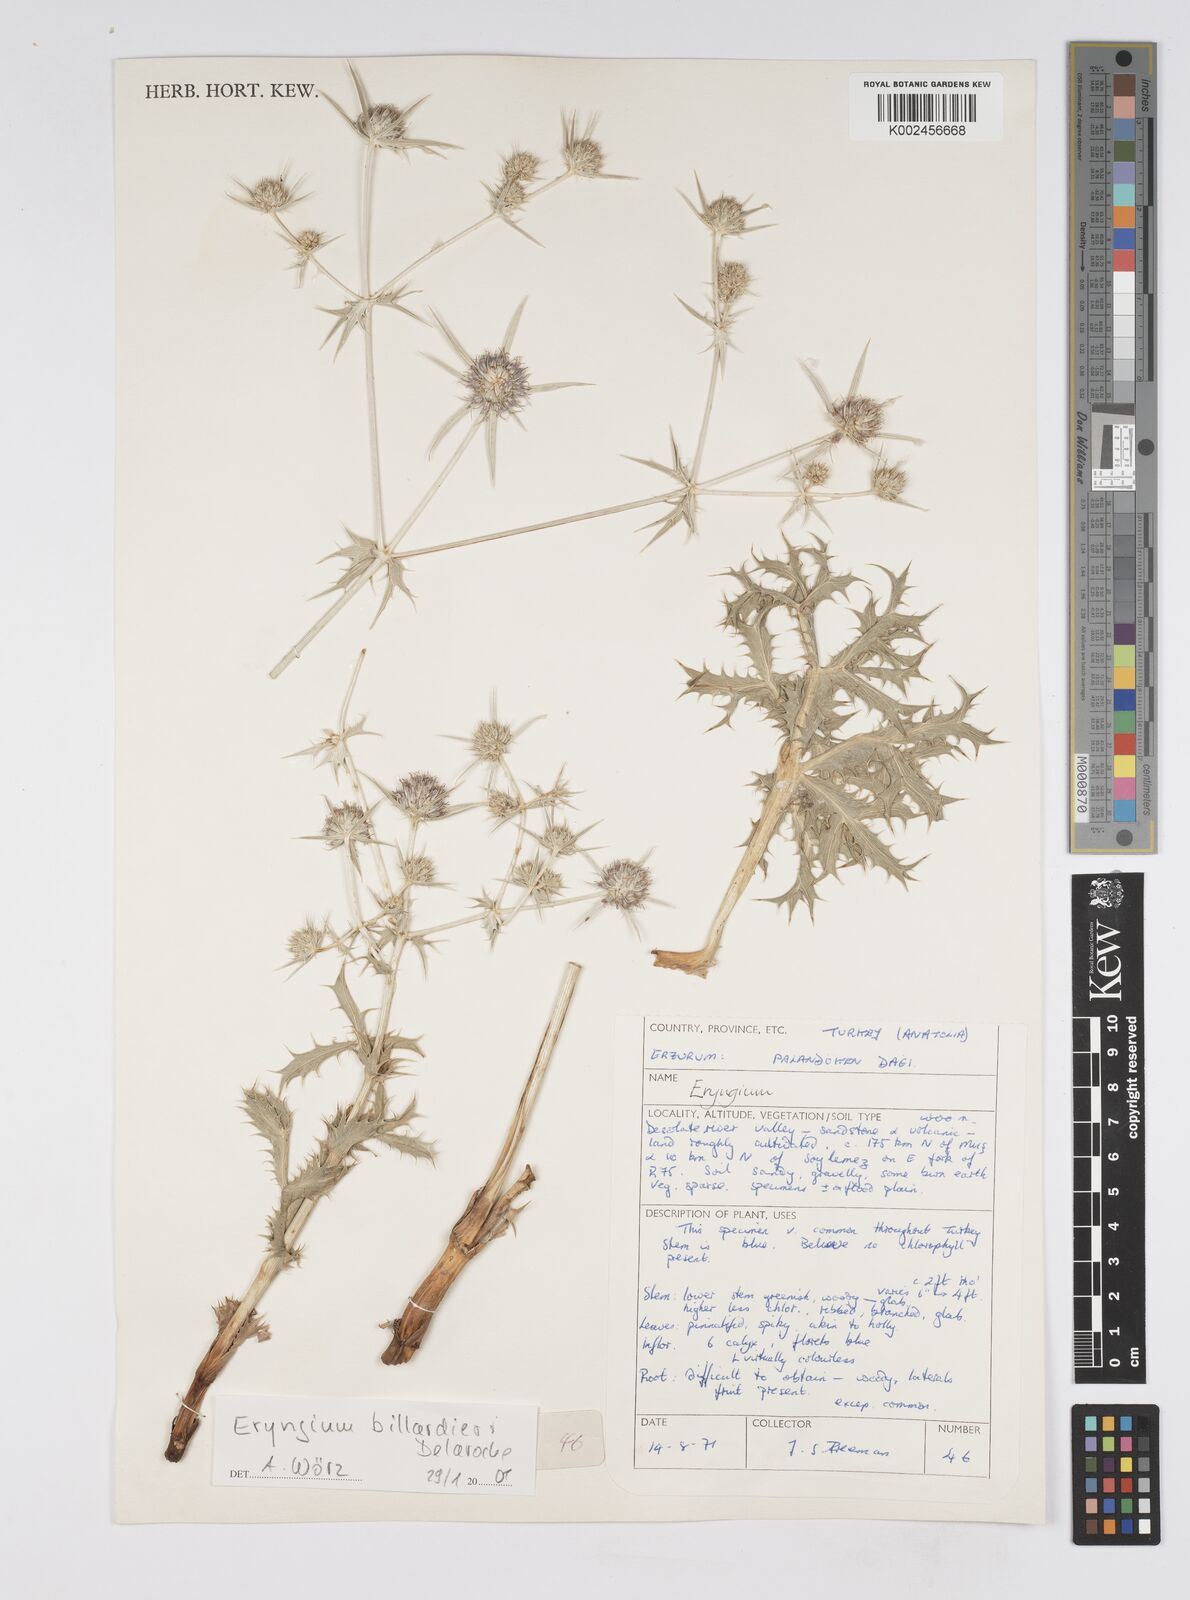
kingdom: Plantae
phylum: Tracheophyta
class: Magnoliopsida
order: Apiales
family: Apiaceae
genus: Eryngium
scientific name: Eryngium billardierei
